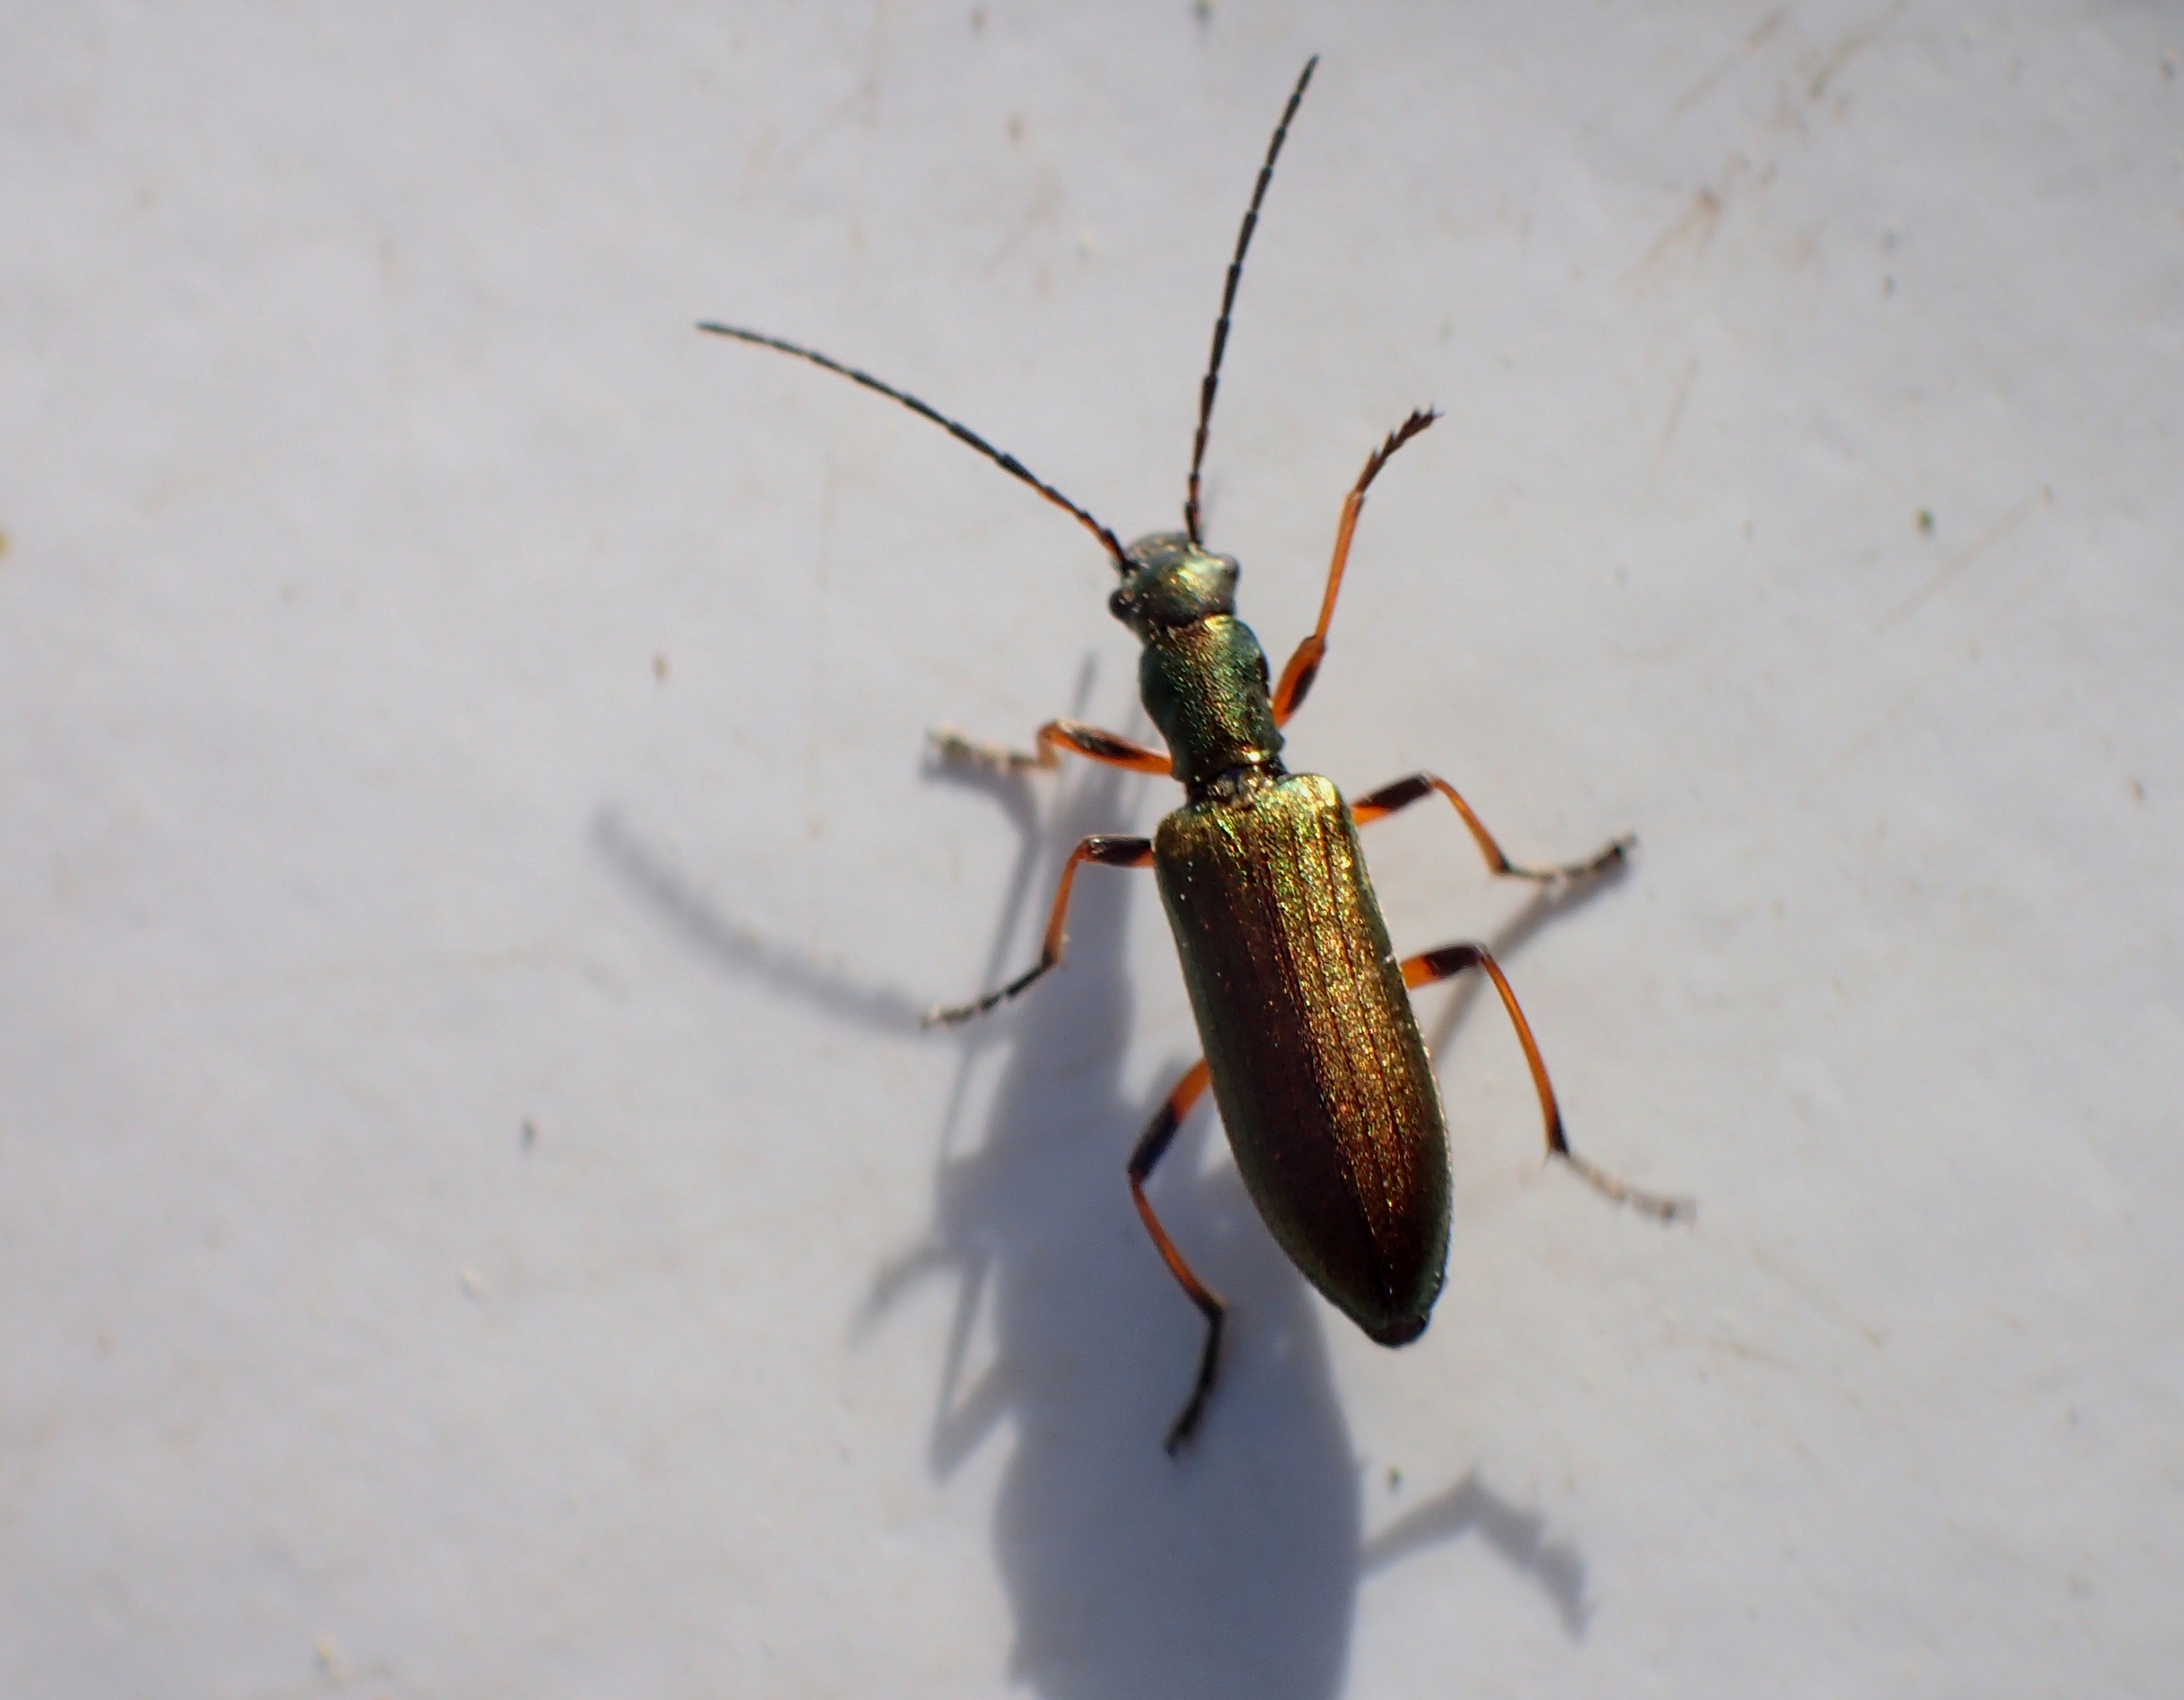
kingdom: Animalia
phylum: Arthropoda
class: Insecta
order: Coleoptera
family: Oedemeridae
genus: Chrysanthia
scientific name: Chrysanthia geniculata
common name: Grøn solbille
